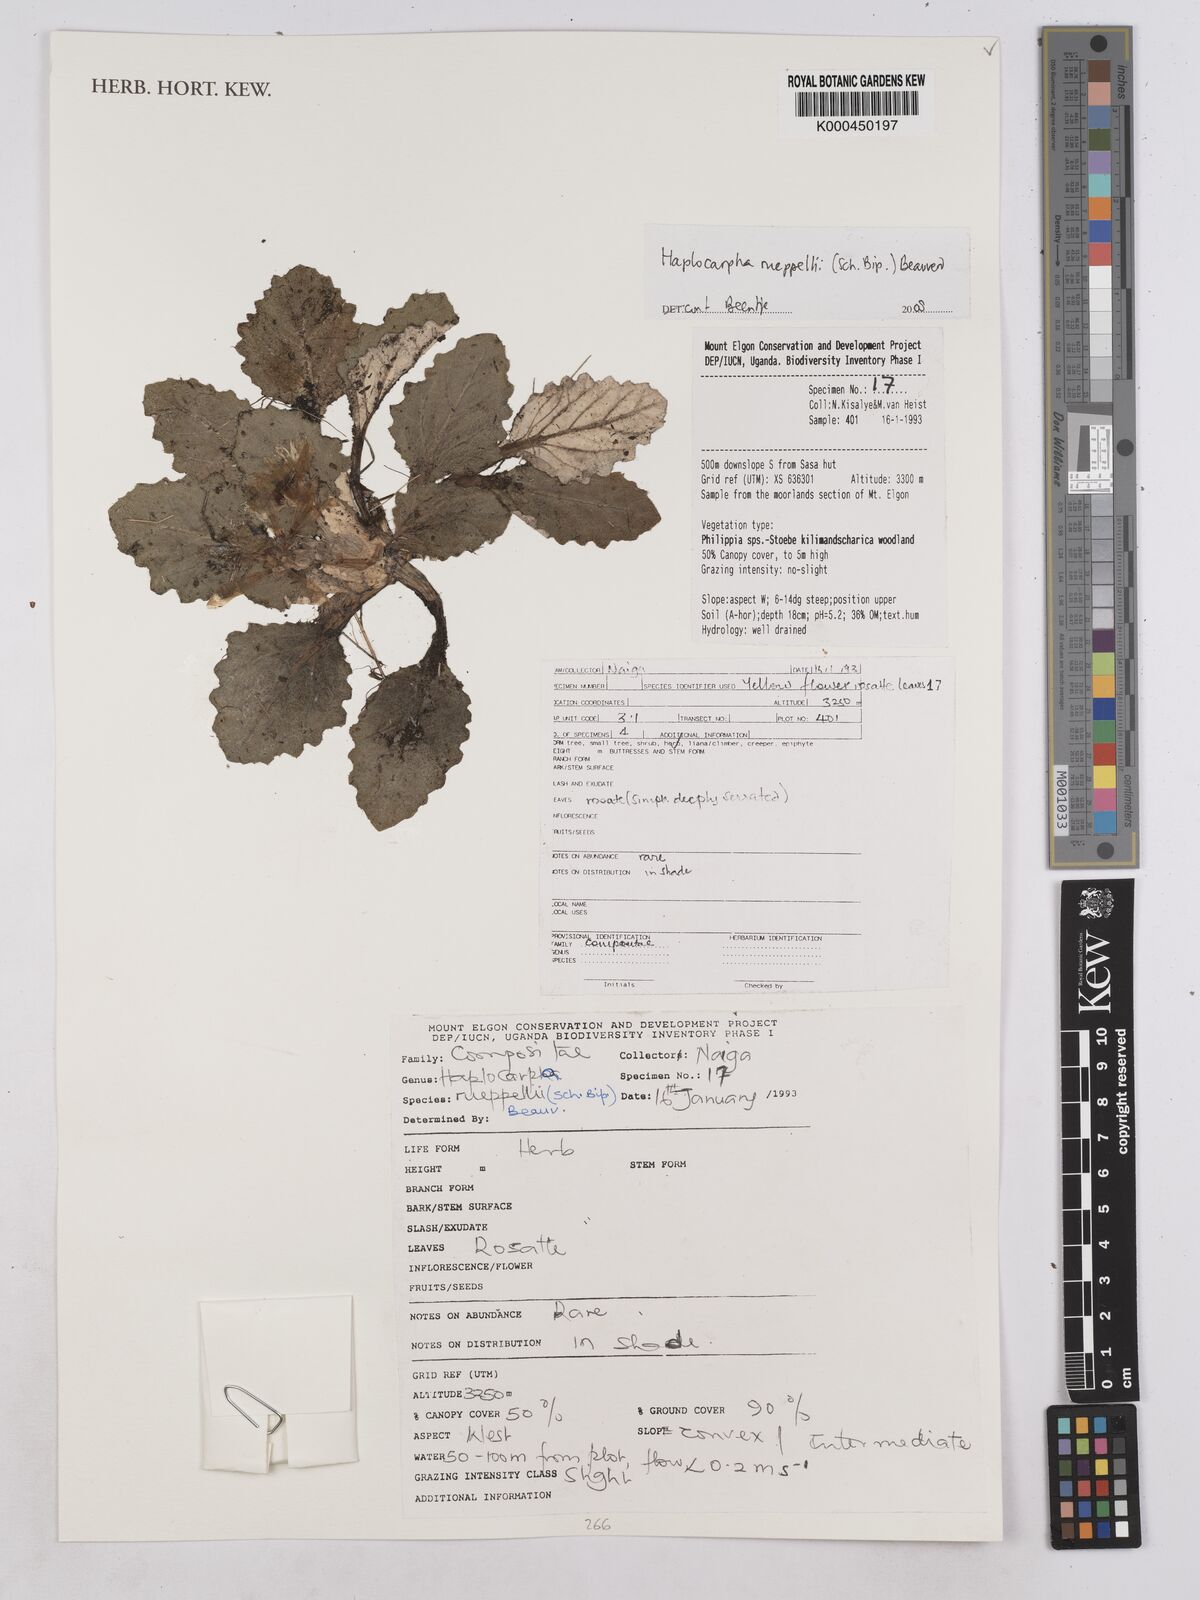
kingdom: Plantae
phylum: Tracheophyta
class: Magnoliopsida
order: Asterales
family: Asteraceae
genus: Haplocarpha
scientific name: Haplocarpha rueppelii
